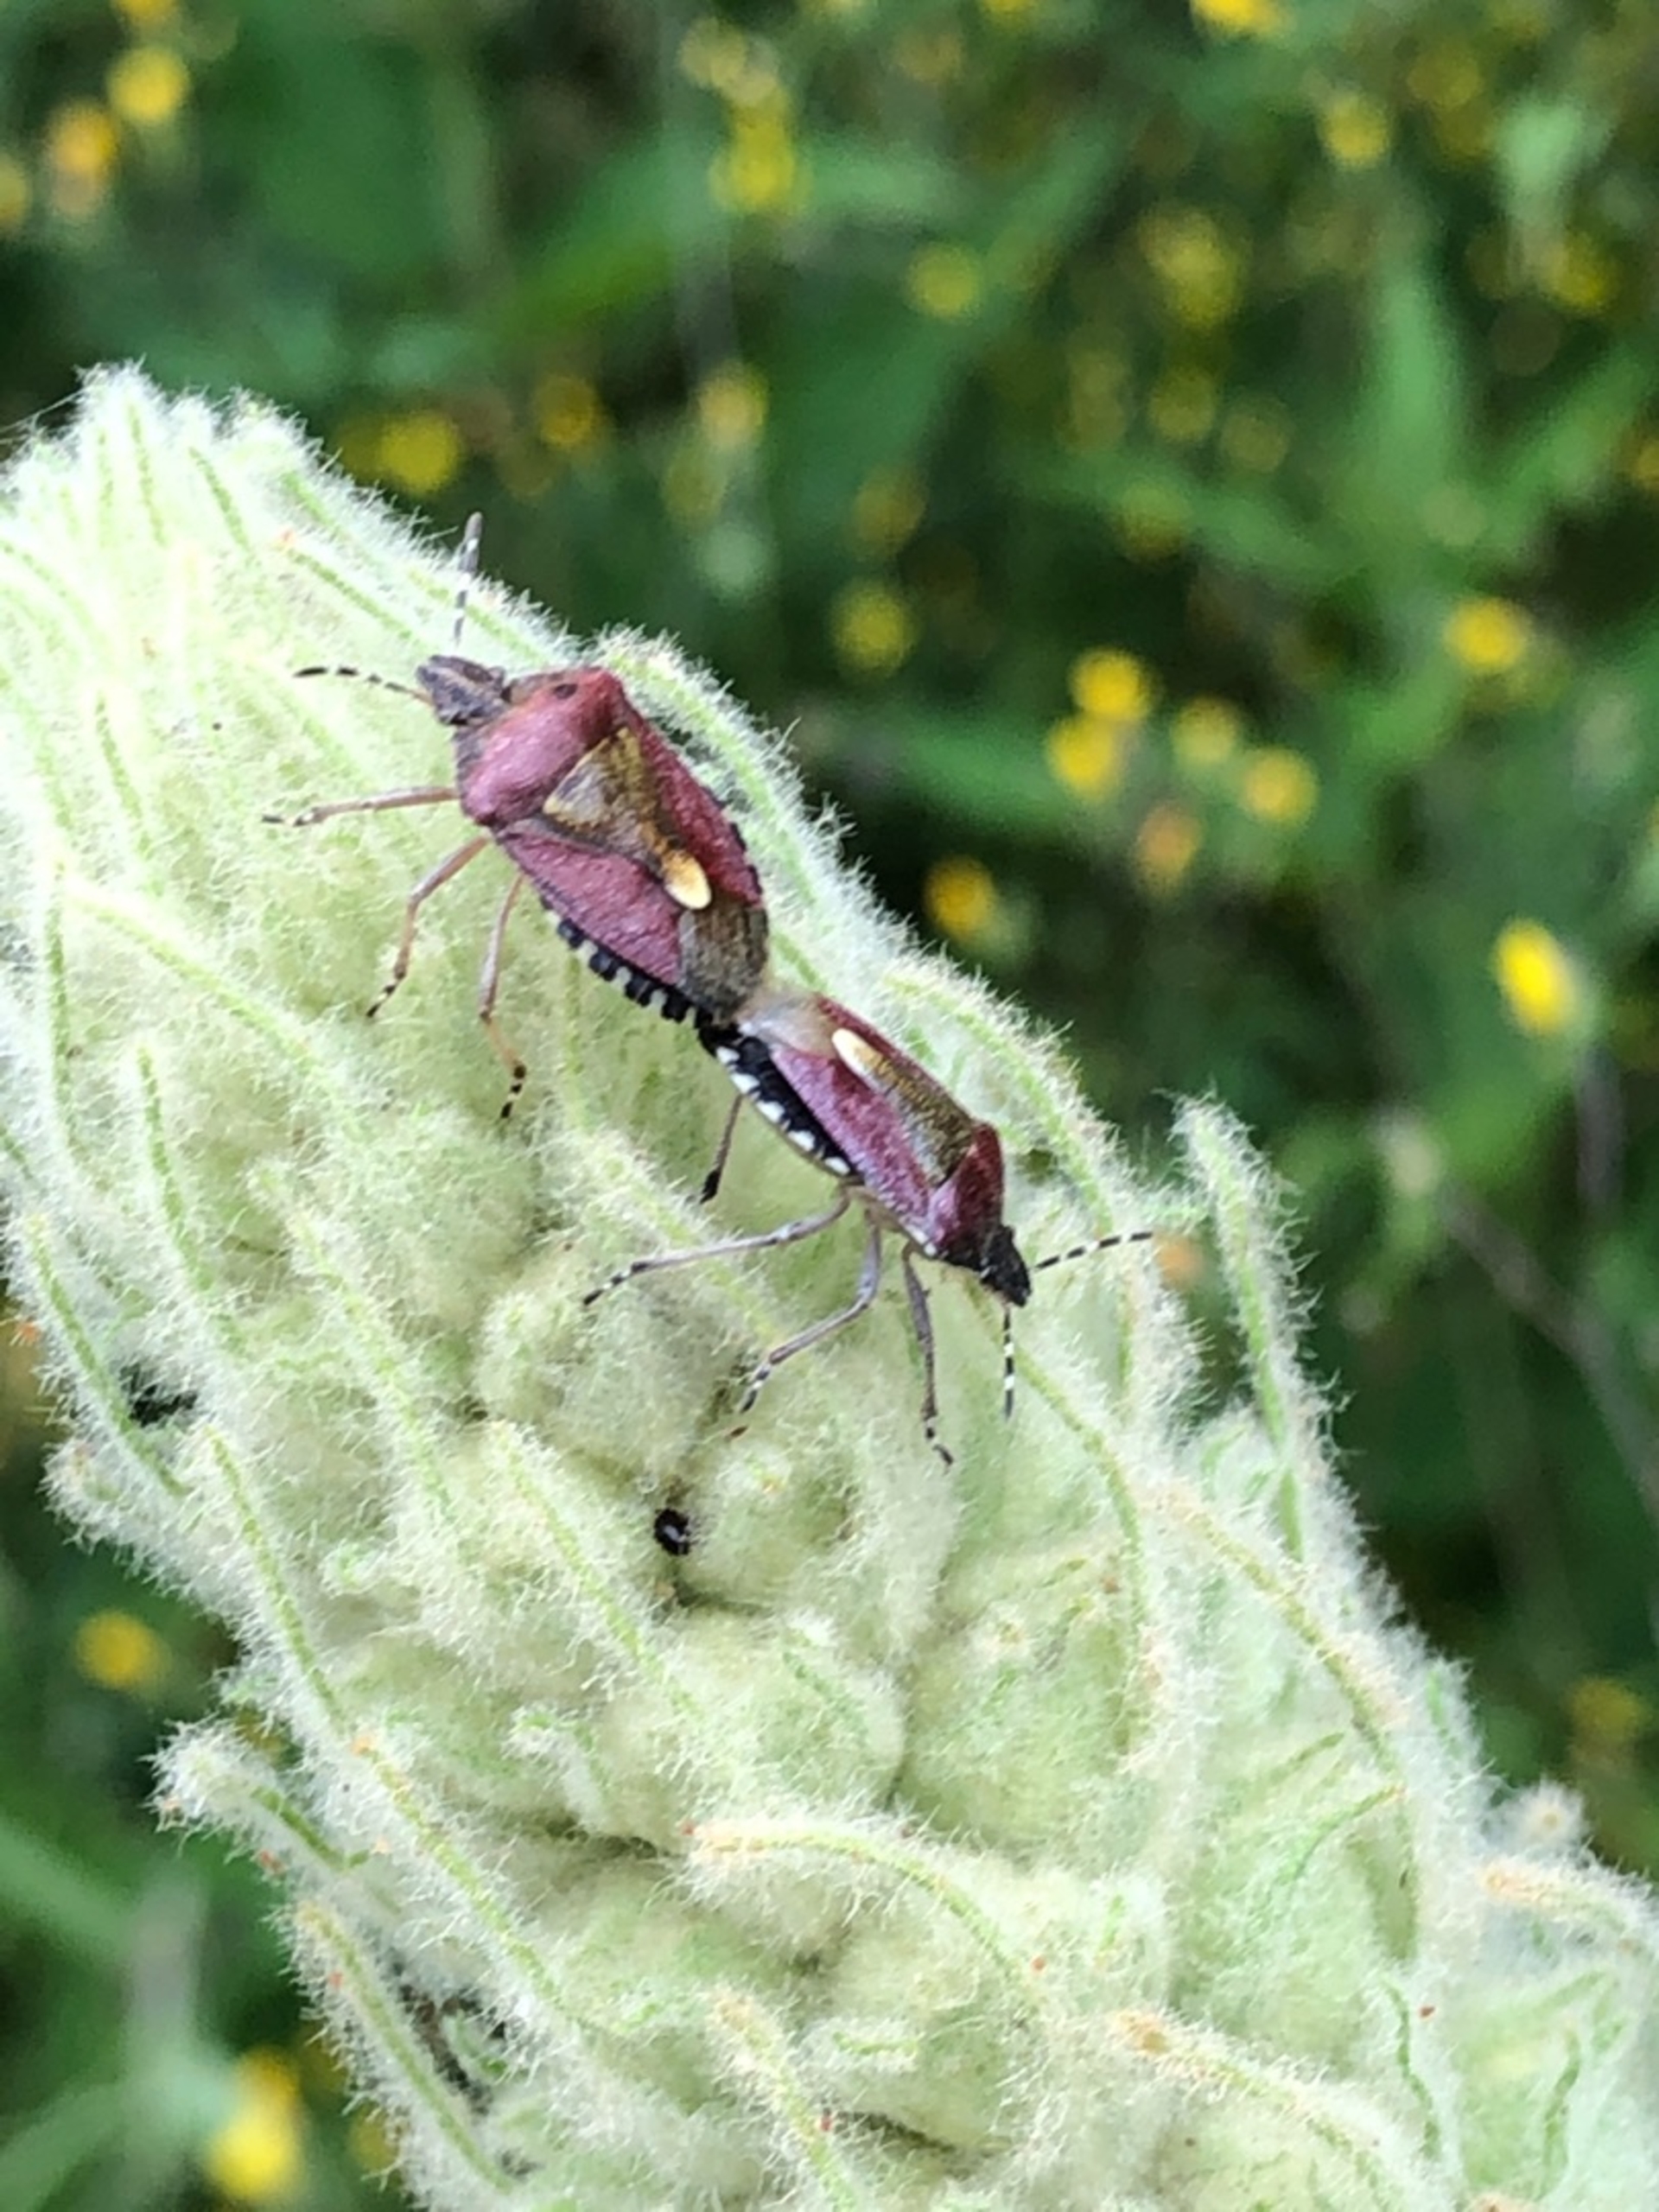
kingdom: Animalia
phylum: Arthropoda
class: Insecta
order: Hemiptera
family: Pentatomidae
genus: Dolycoris
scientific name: Dolycoris baccarum
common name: Almindelig bærtæge
